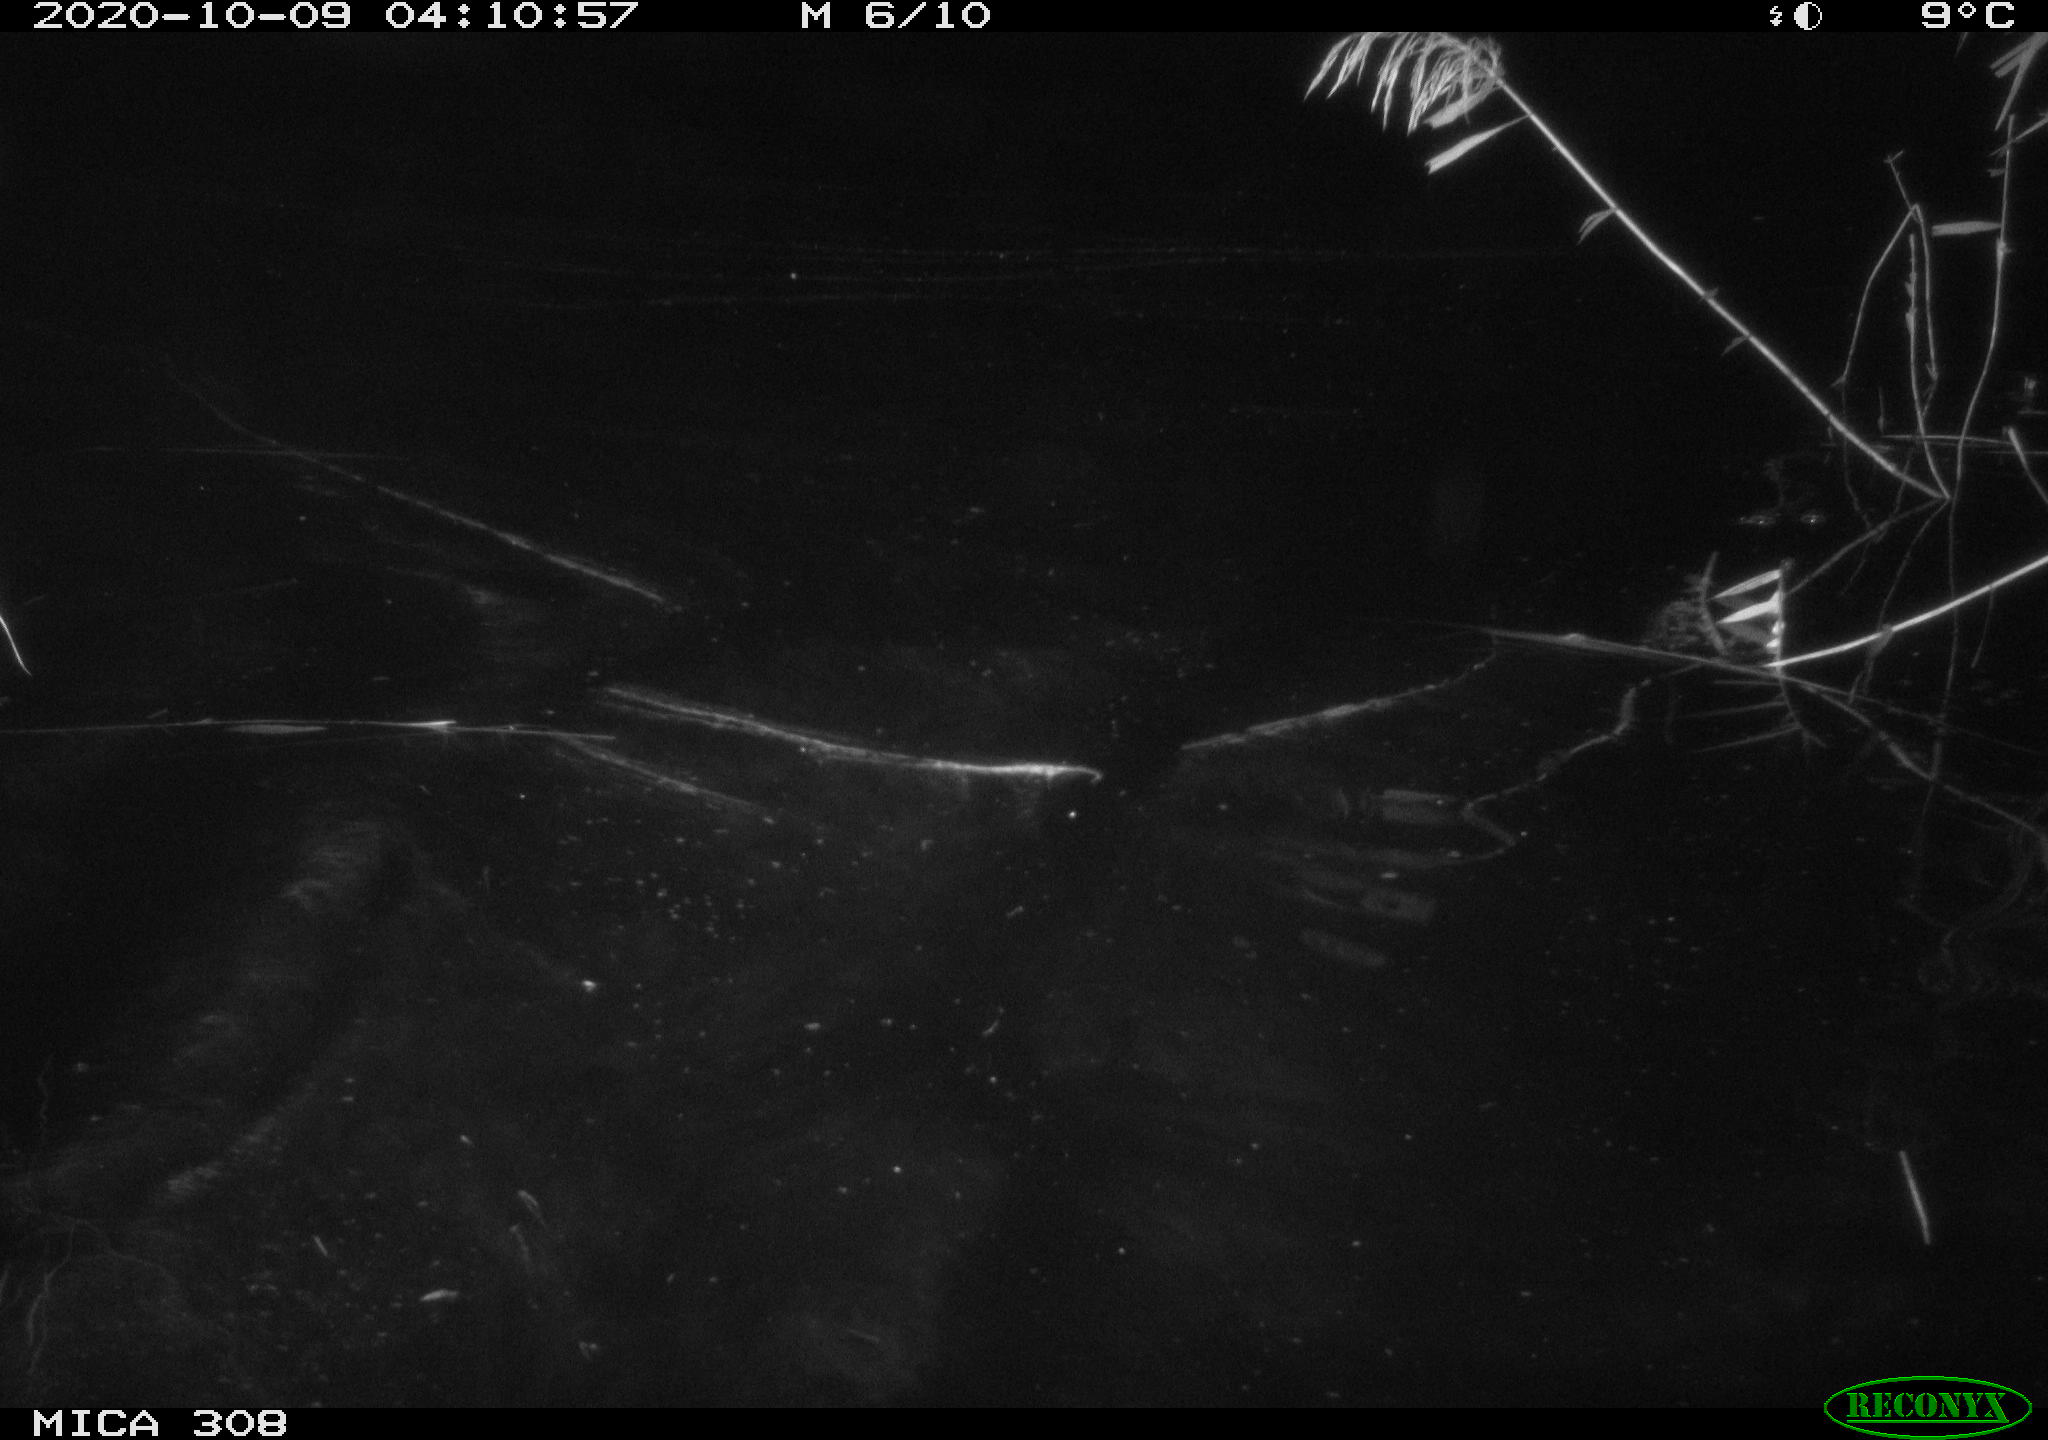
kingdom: Animalia
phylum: Chordata
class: Mammalia
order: Rodentia
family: Cricetidae
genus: Ondatra
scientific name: Ondatra zibethicus
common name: Muskrat
